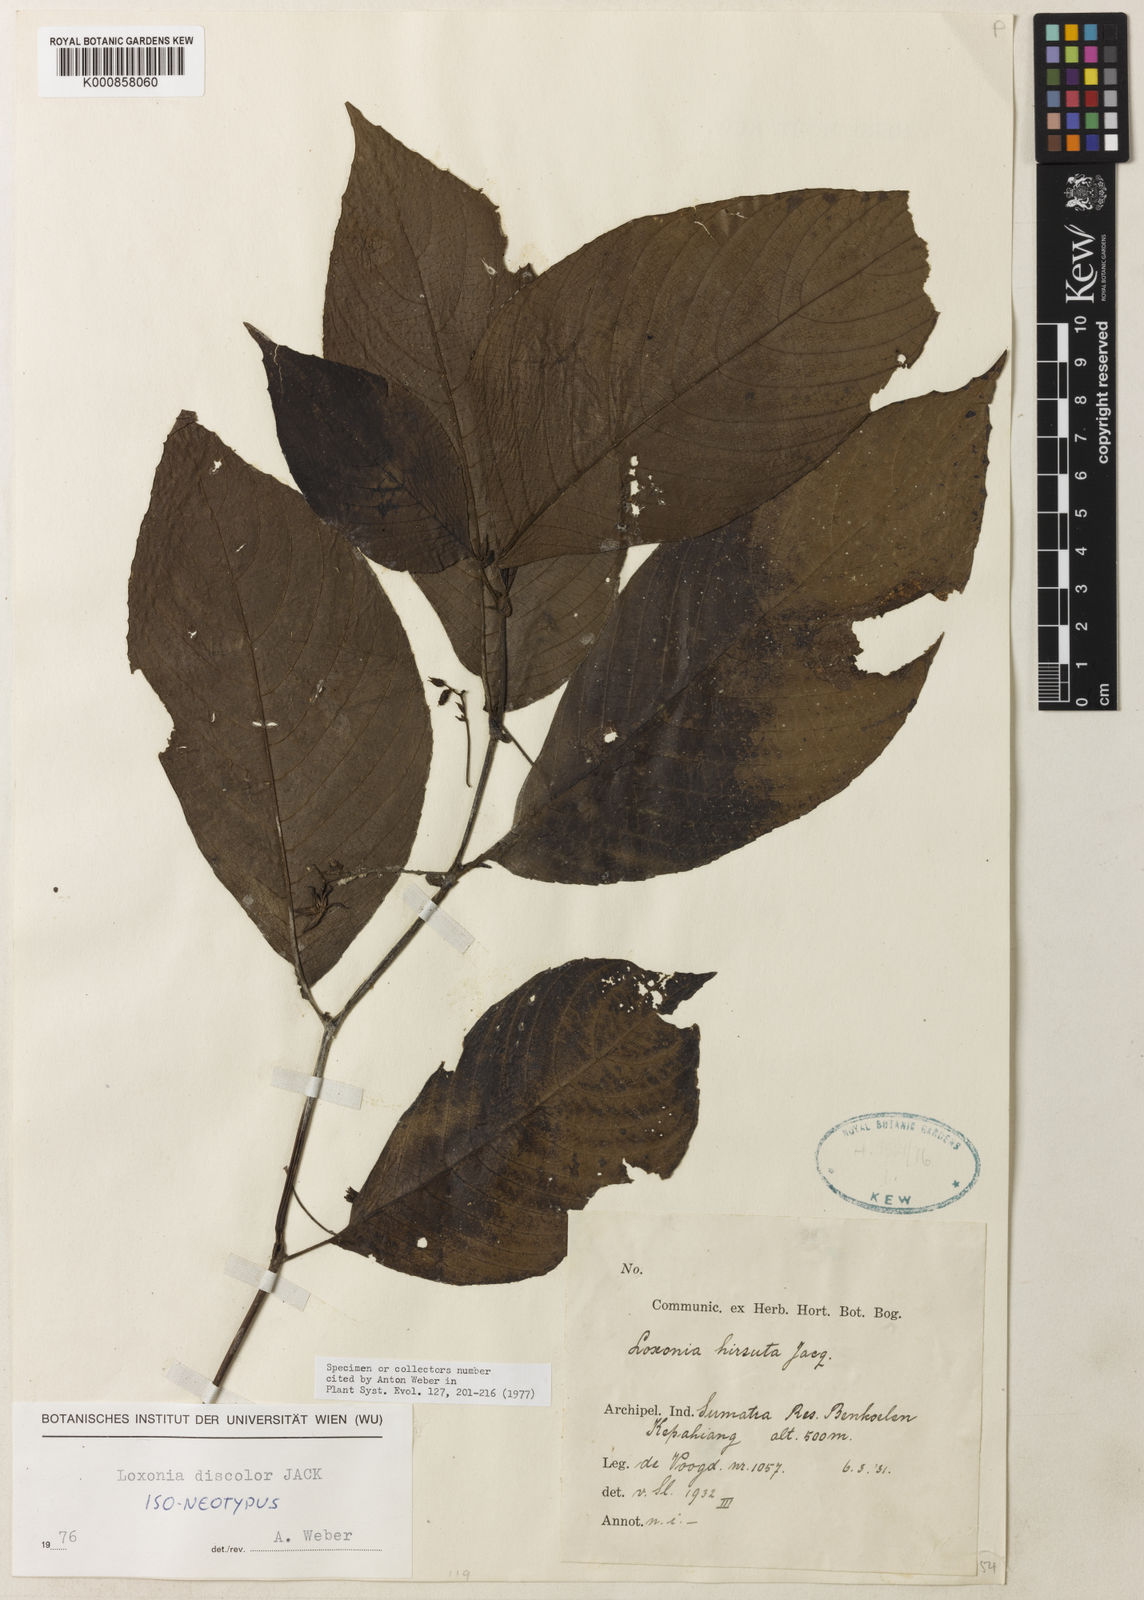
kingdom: Plantae
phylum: Tracheophyta
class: Magnoliopsida
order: Lamiales
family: Gesneriaceae
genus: Loxonia
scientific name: Loxonia hirsuta
